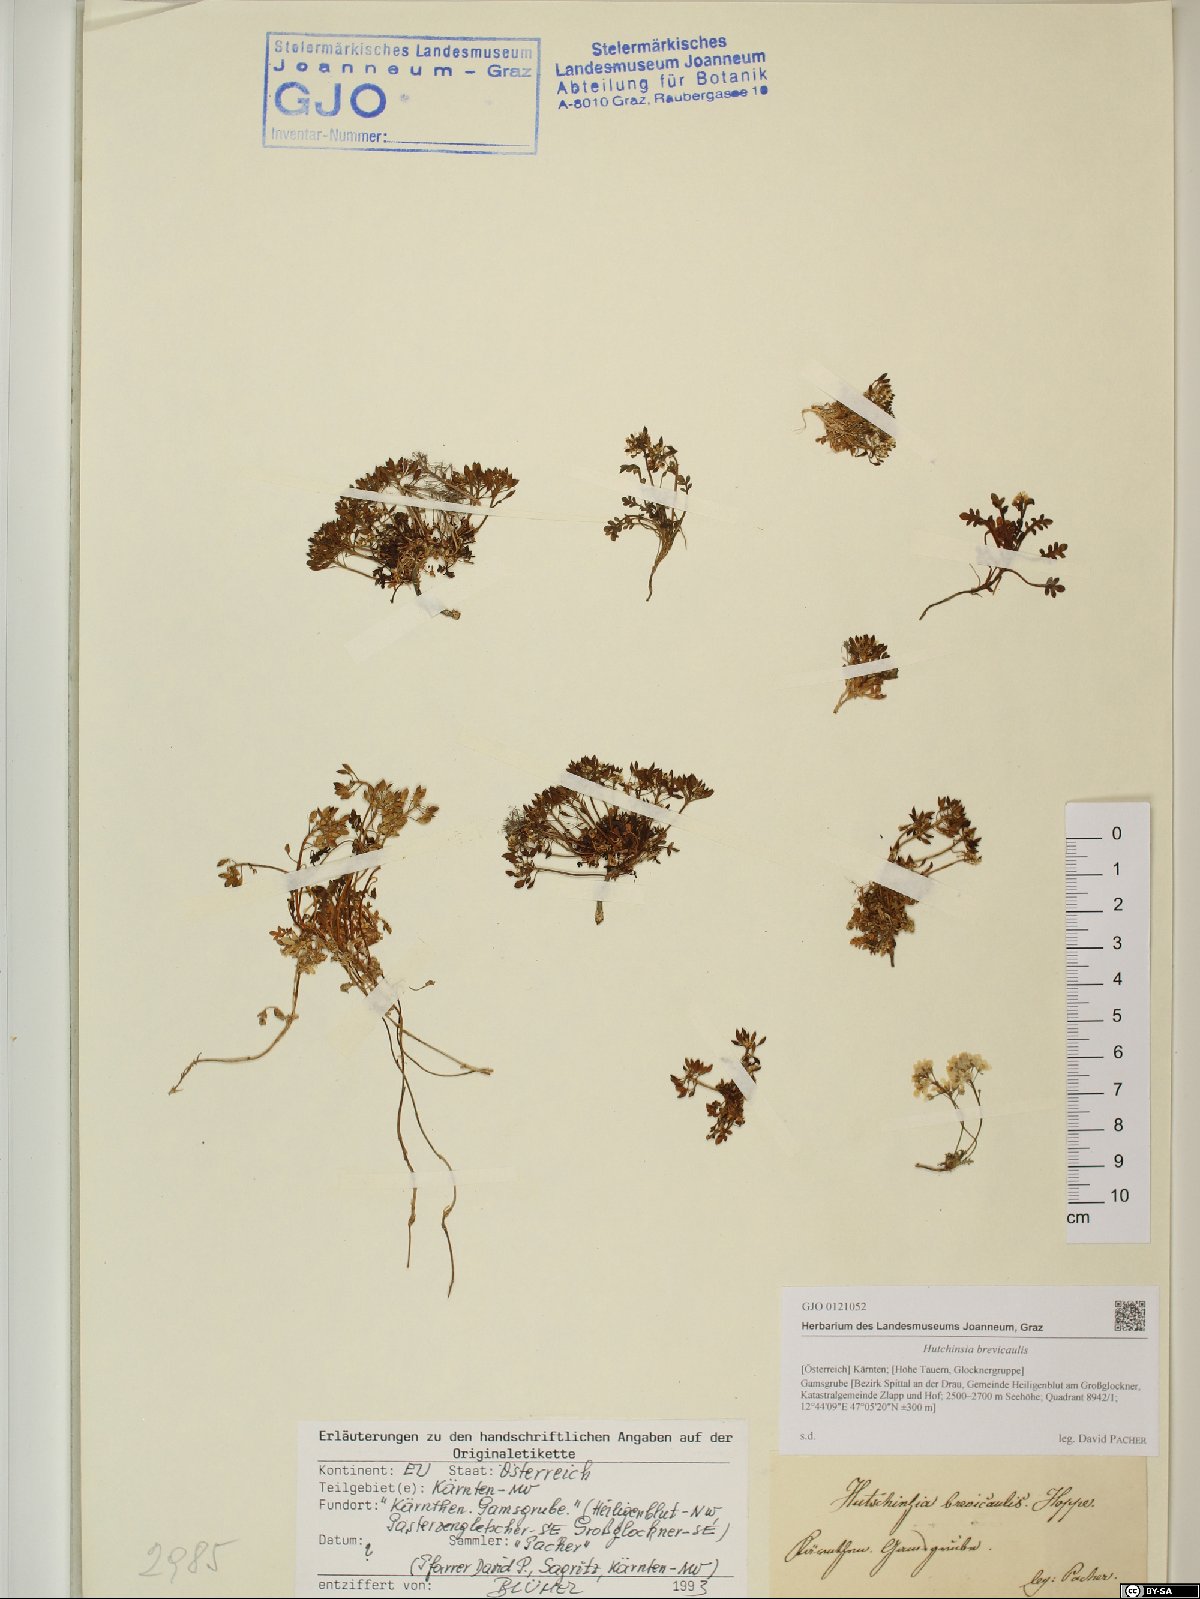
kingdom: Plantae
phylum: Tracheophyta
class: Magnoliopsida
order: Brassicales
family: Brassicaceae
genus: Hornungia
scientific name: Hornungia alpina
